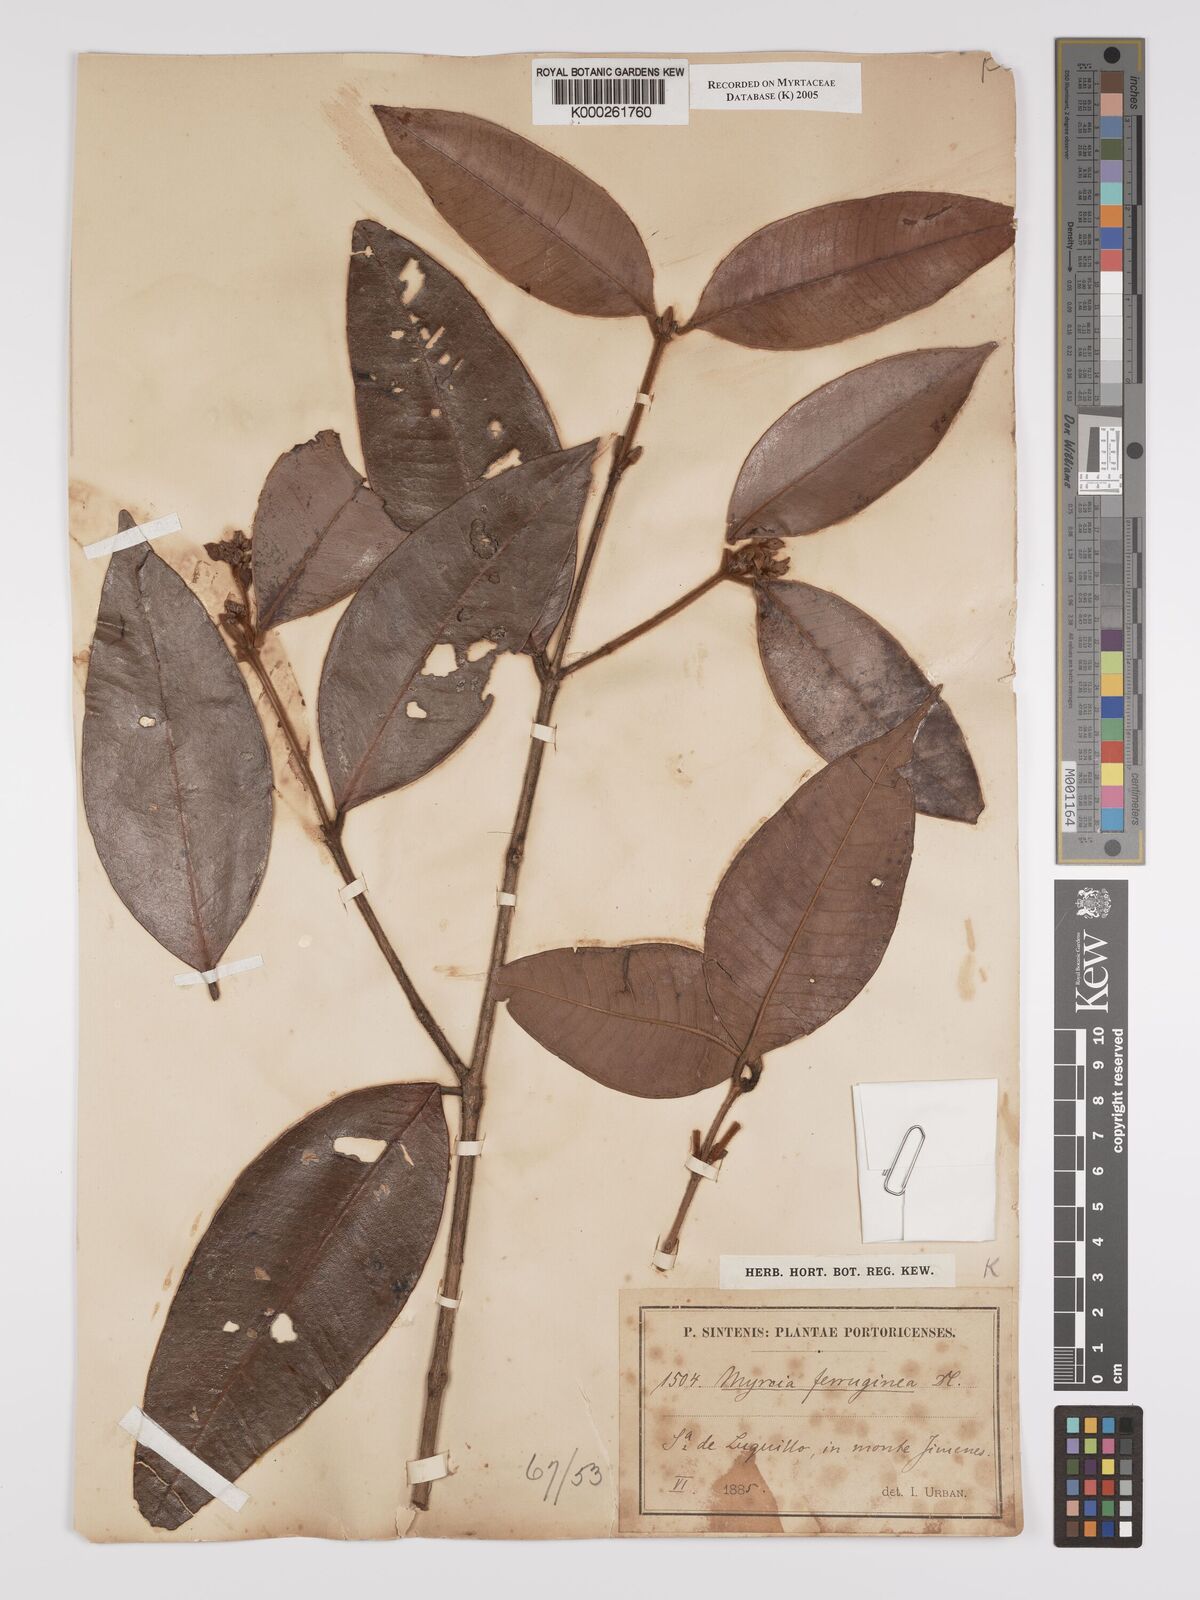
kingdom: Plantae
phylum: Tracheophyta
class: Magnoliopsida
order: Myrtales
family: Myrtaceae
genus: Myrcia
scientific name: Myrcia ferruginea
